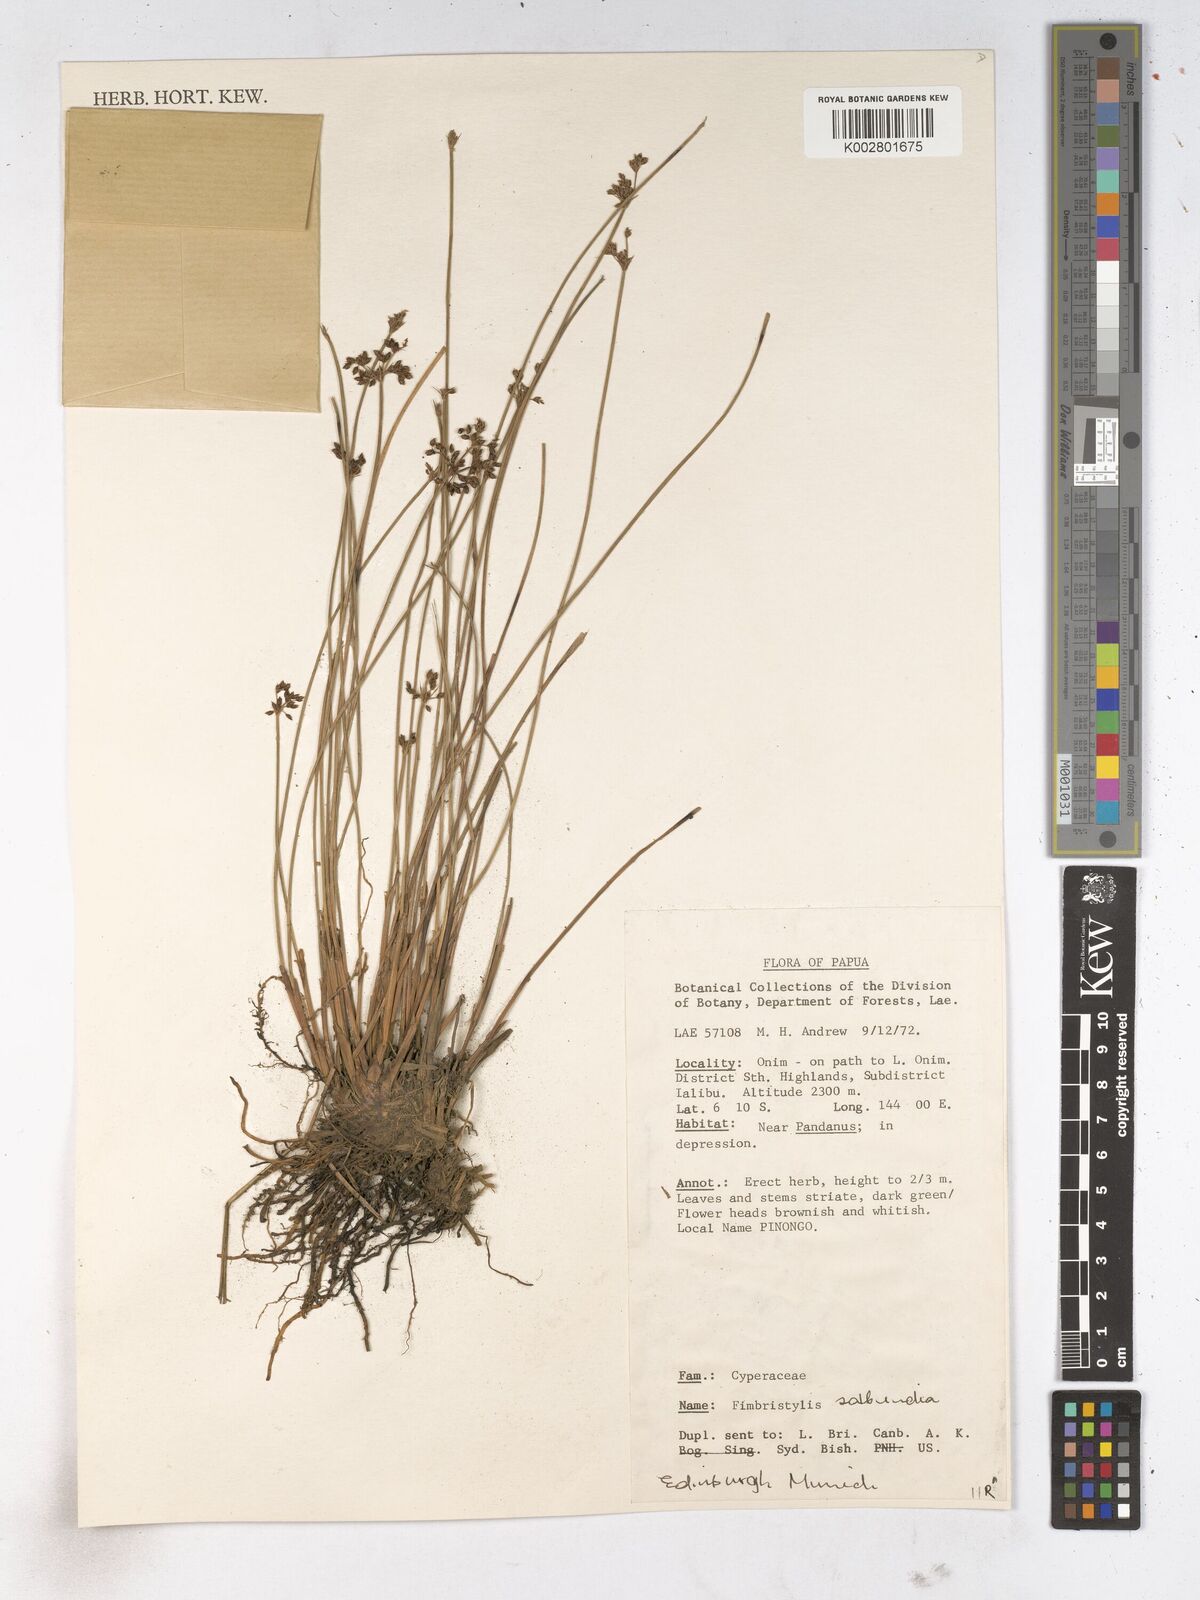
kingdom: Plantae
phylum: Tracheophyta
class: Liliopsida
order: Poales
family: Cyperaceae
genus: Fimbristylis
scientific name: Fimbristylis salbundia
